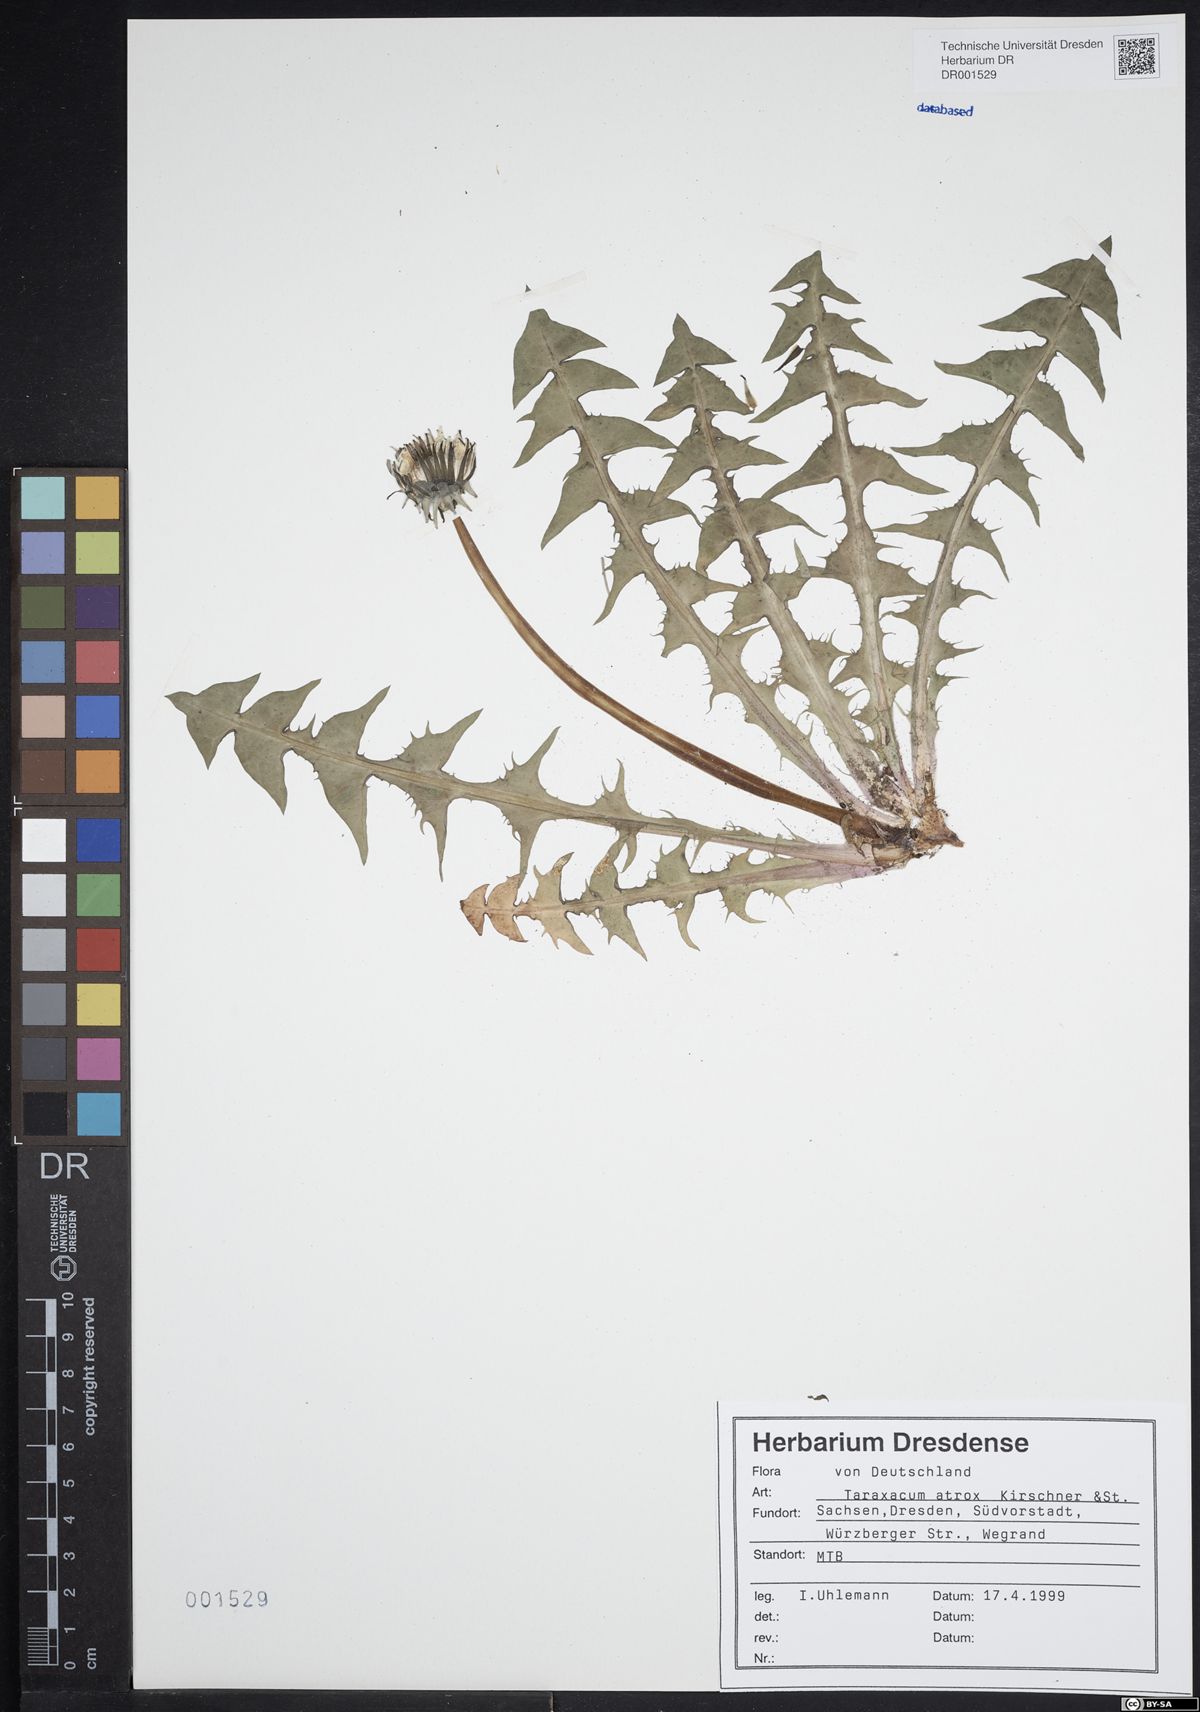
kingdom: Plantae
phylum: Tracheophyta
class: Magnoliopsida
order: Asterales
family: Asteraceae
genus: Taraxacum
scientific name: Taraxacum atrox
